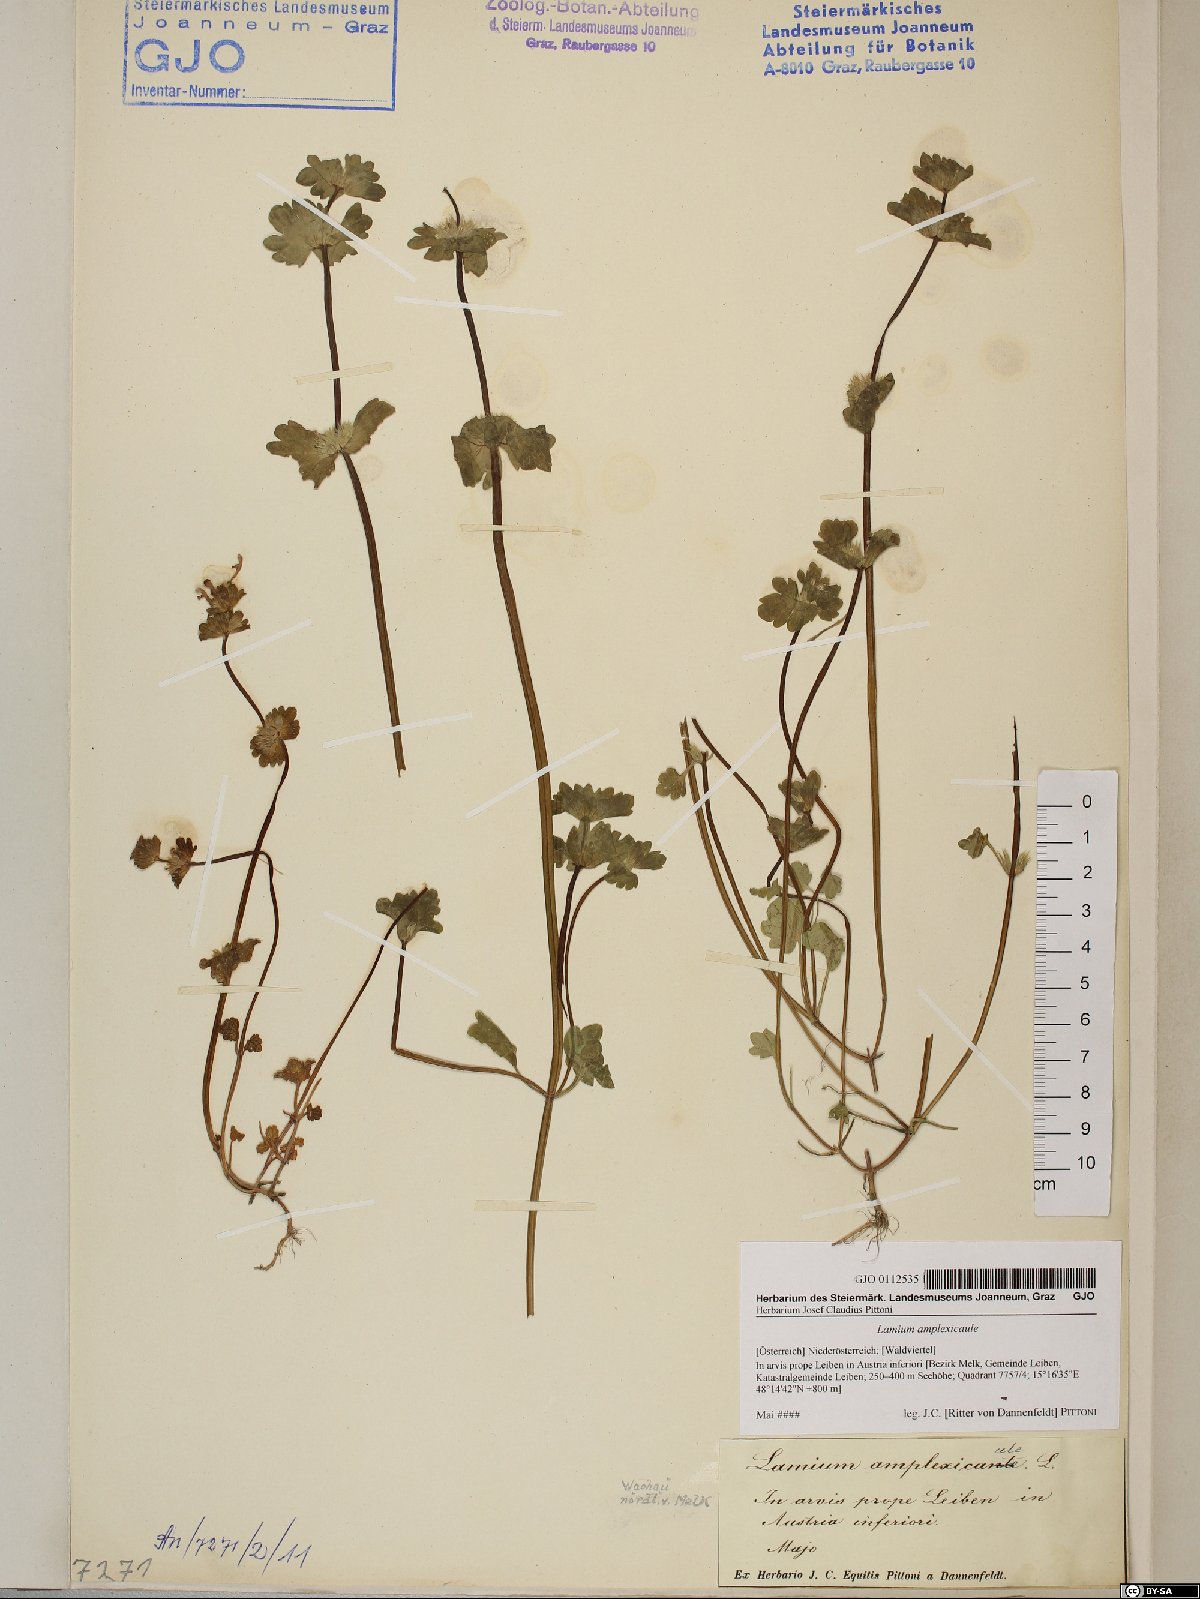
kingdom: Plantae
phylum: Tracheophyta
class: Magnoliopsida
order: Lamiales
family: Lamiaceae
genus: Lamium
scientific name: Lamium amplexicaule
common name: Henbit dead-nettle
